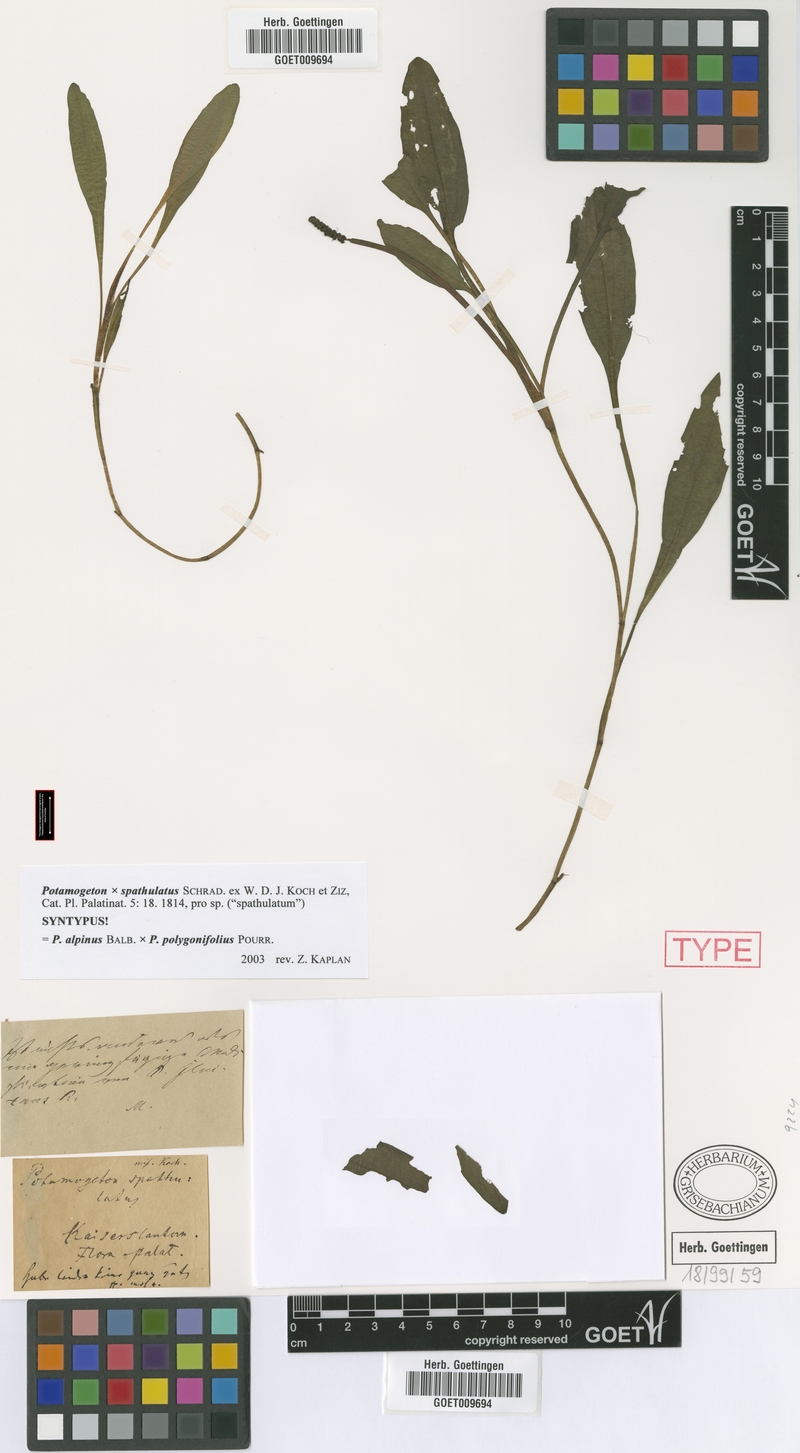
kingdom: Plantae
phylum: Tracheophyta
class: Liliopsida
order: Alismatales
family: Potamogetonaceae
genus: Potamogeton
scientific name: Potamogeton spathulatus
